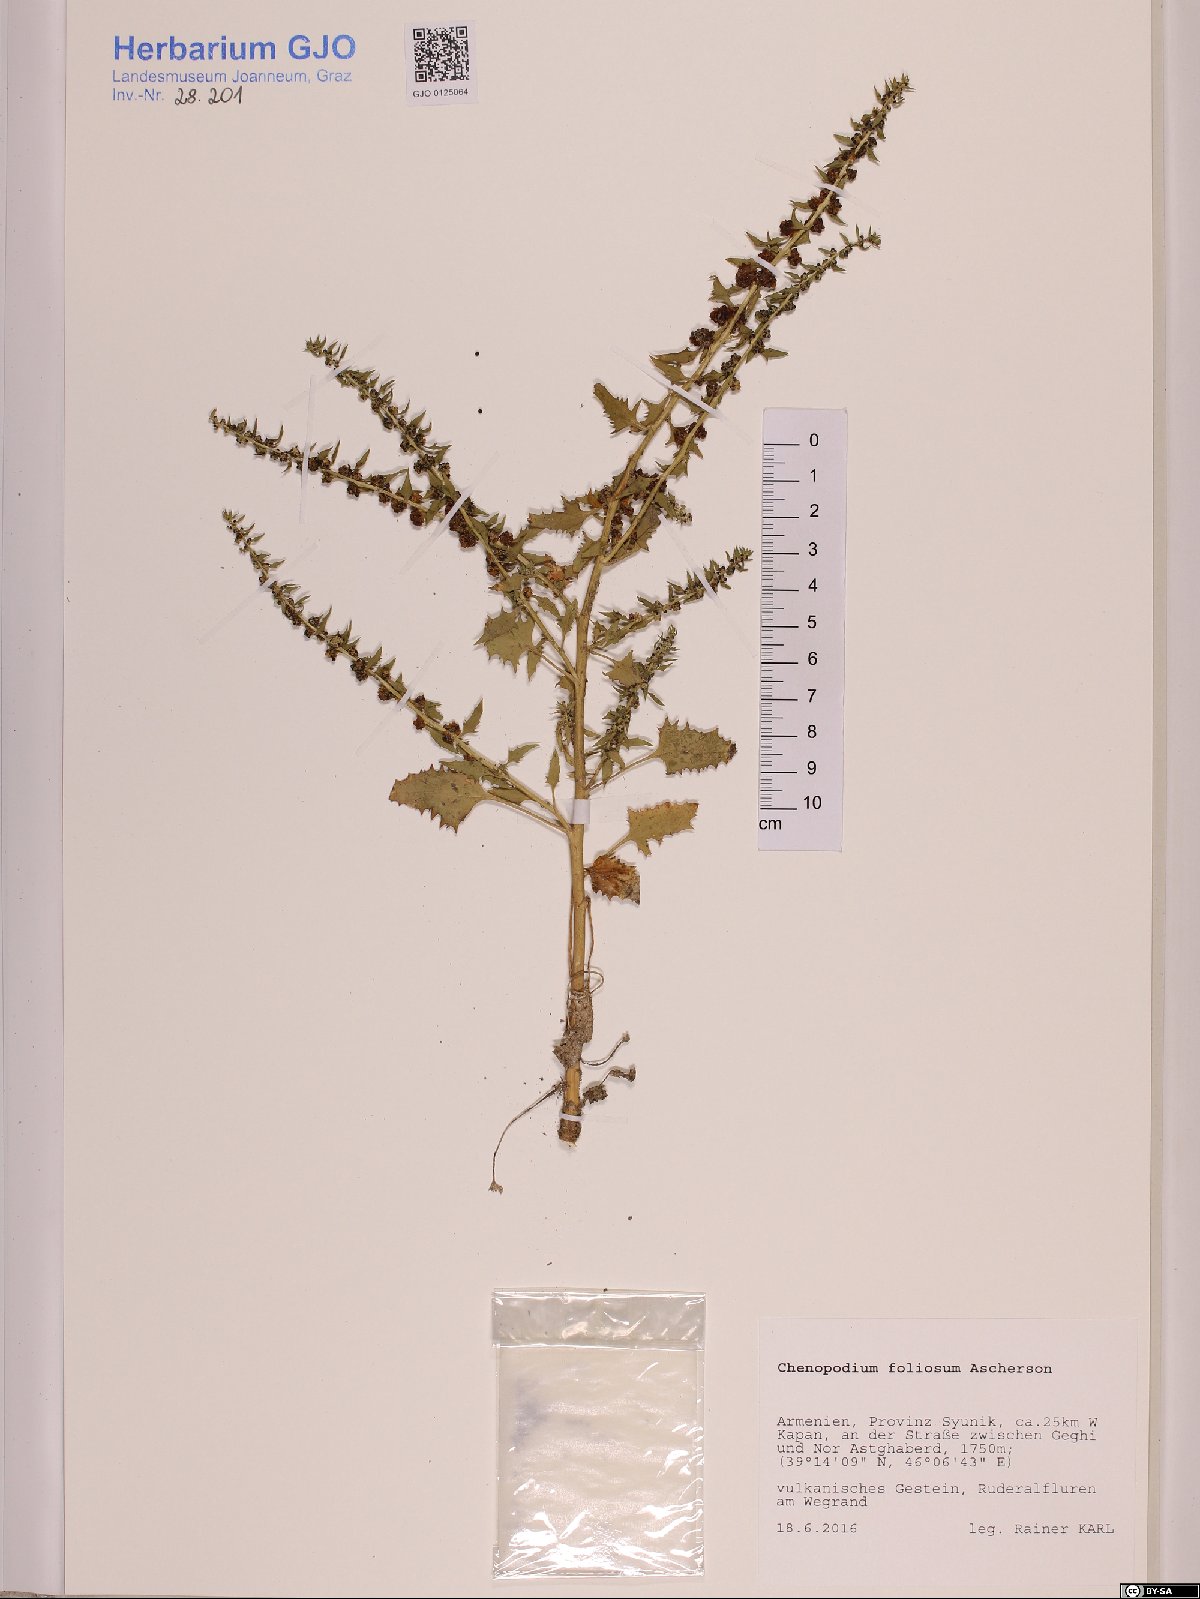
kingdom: Plantae
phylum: Tracheophyta
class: Magnoliopsida
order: Caryophyllales
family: Amaranthaceae
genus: Blitum
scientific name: Blitum virgatum
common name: Strawberry goosefoot
